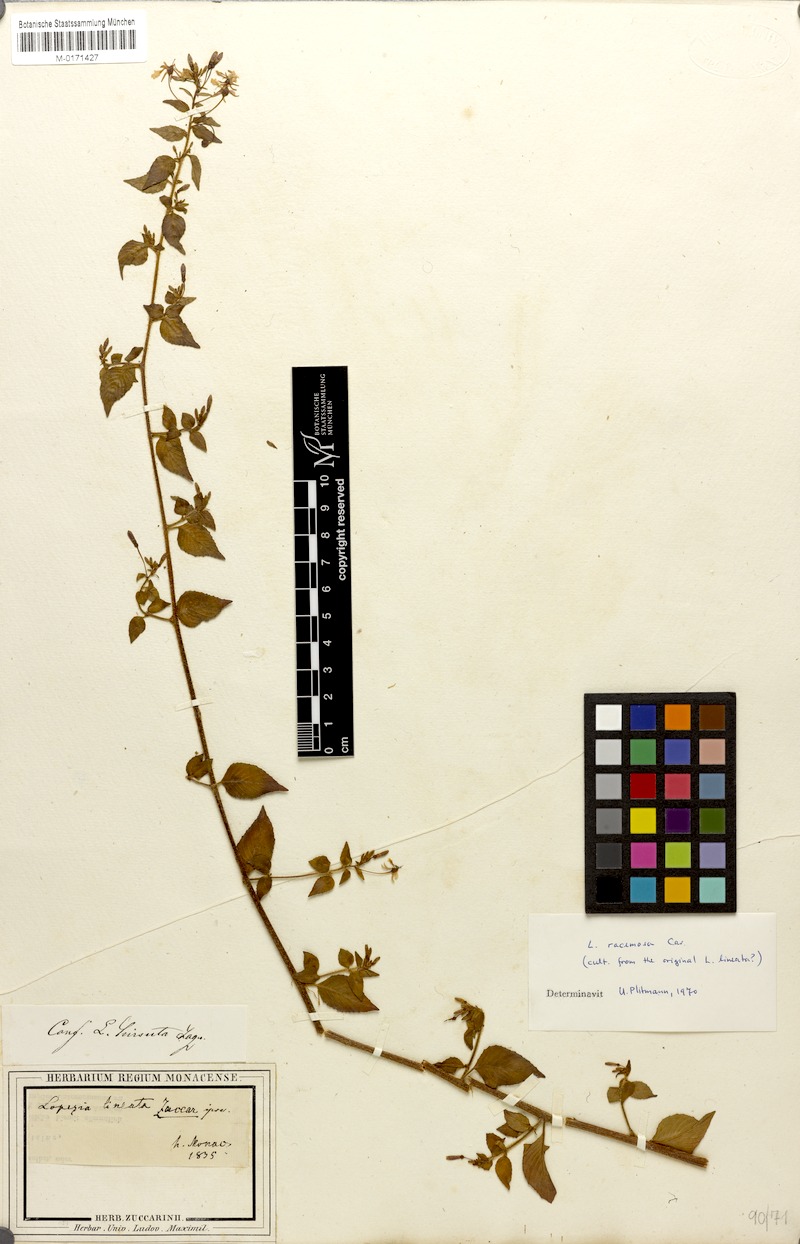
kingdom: Plantae
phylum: Tracheophyta
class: Magnoliopsida
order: Myrtales
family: Onagraceae
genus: Lopezia
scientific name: Lopezia racemosa
